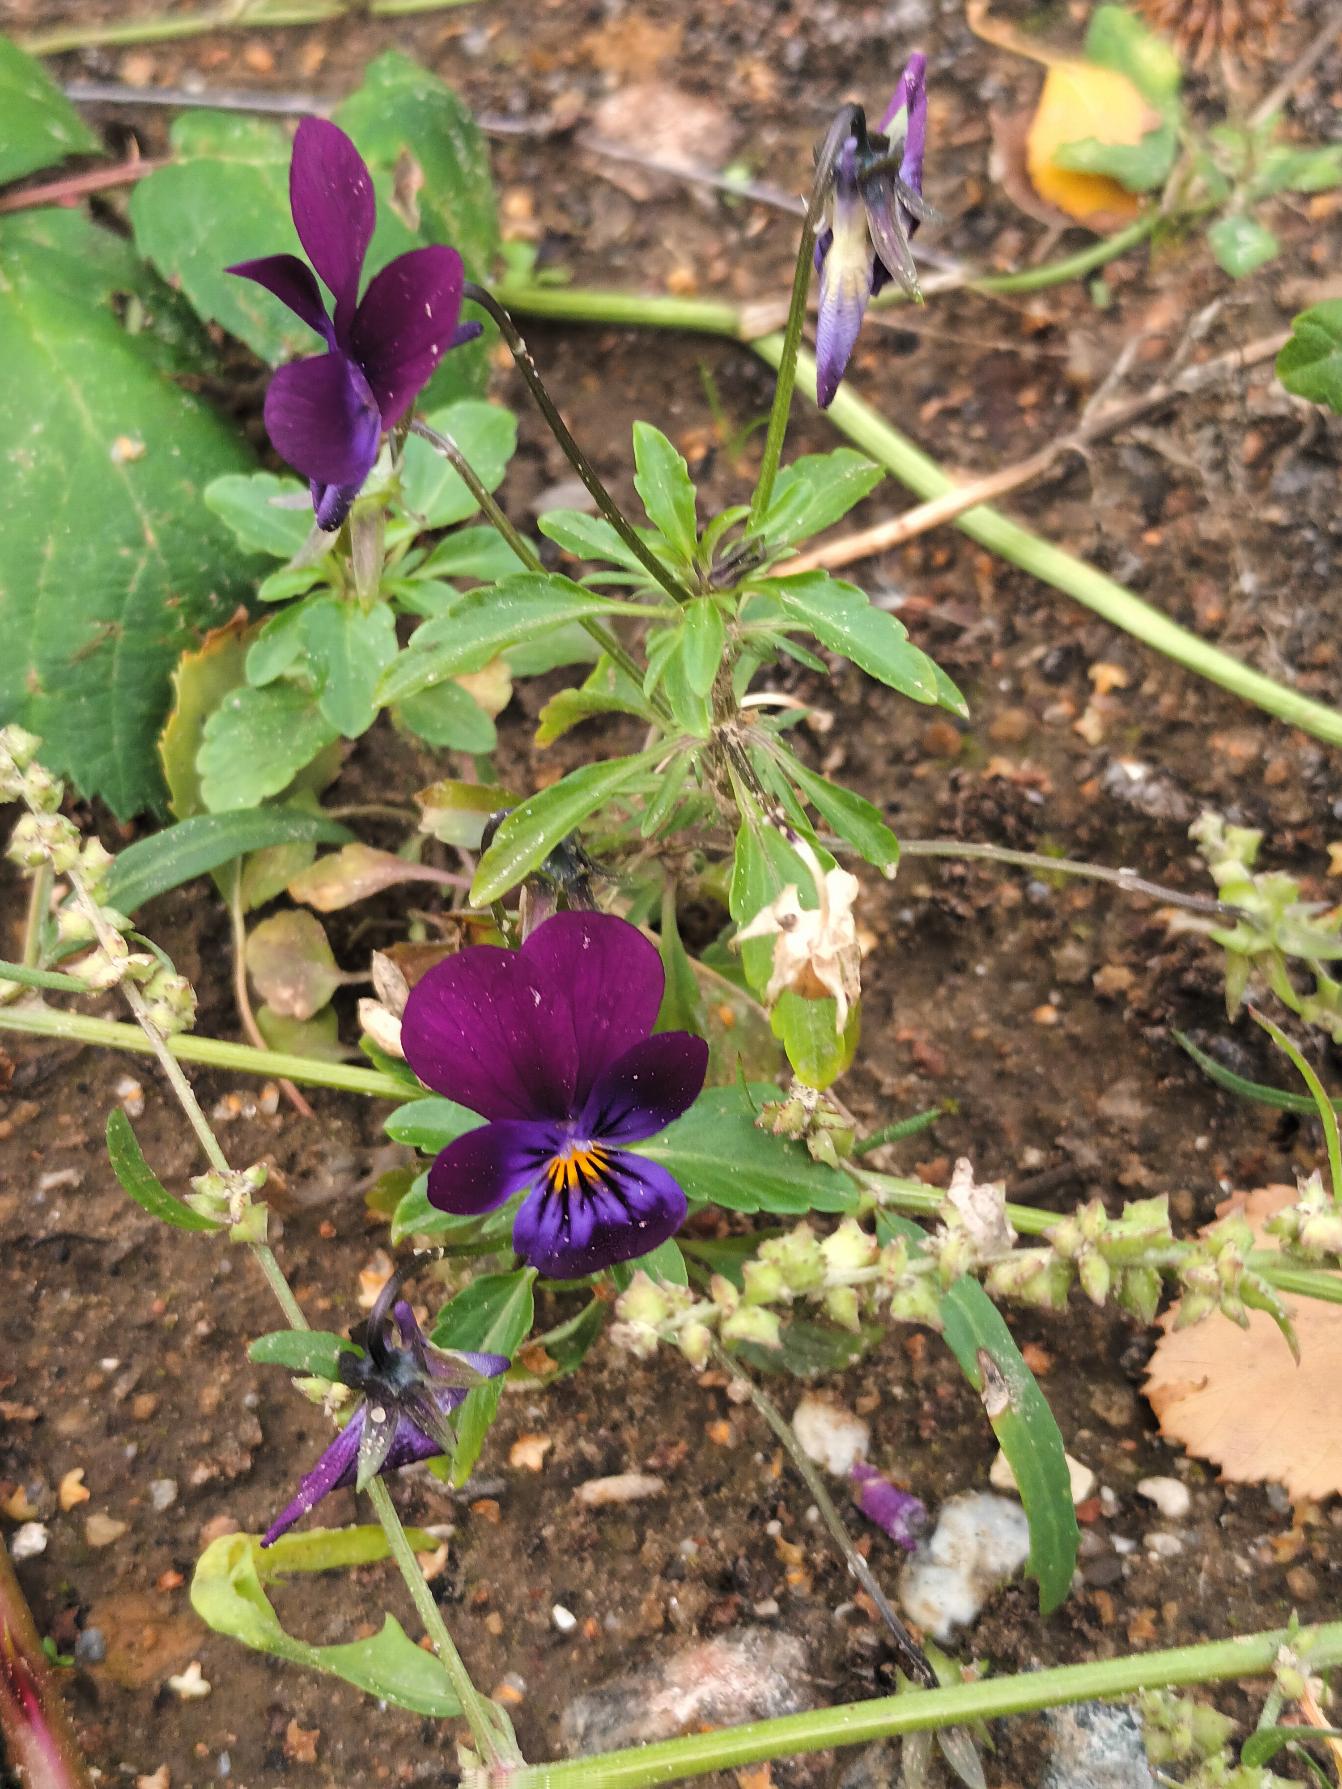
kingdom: Plantae
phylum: Tracheophyta
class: Magnoliopsida
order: Malpighiales
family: Violaceae
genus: Viola
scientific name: Viola wittrockiana
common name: Have-stedmoderblomst
